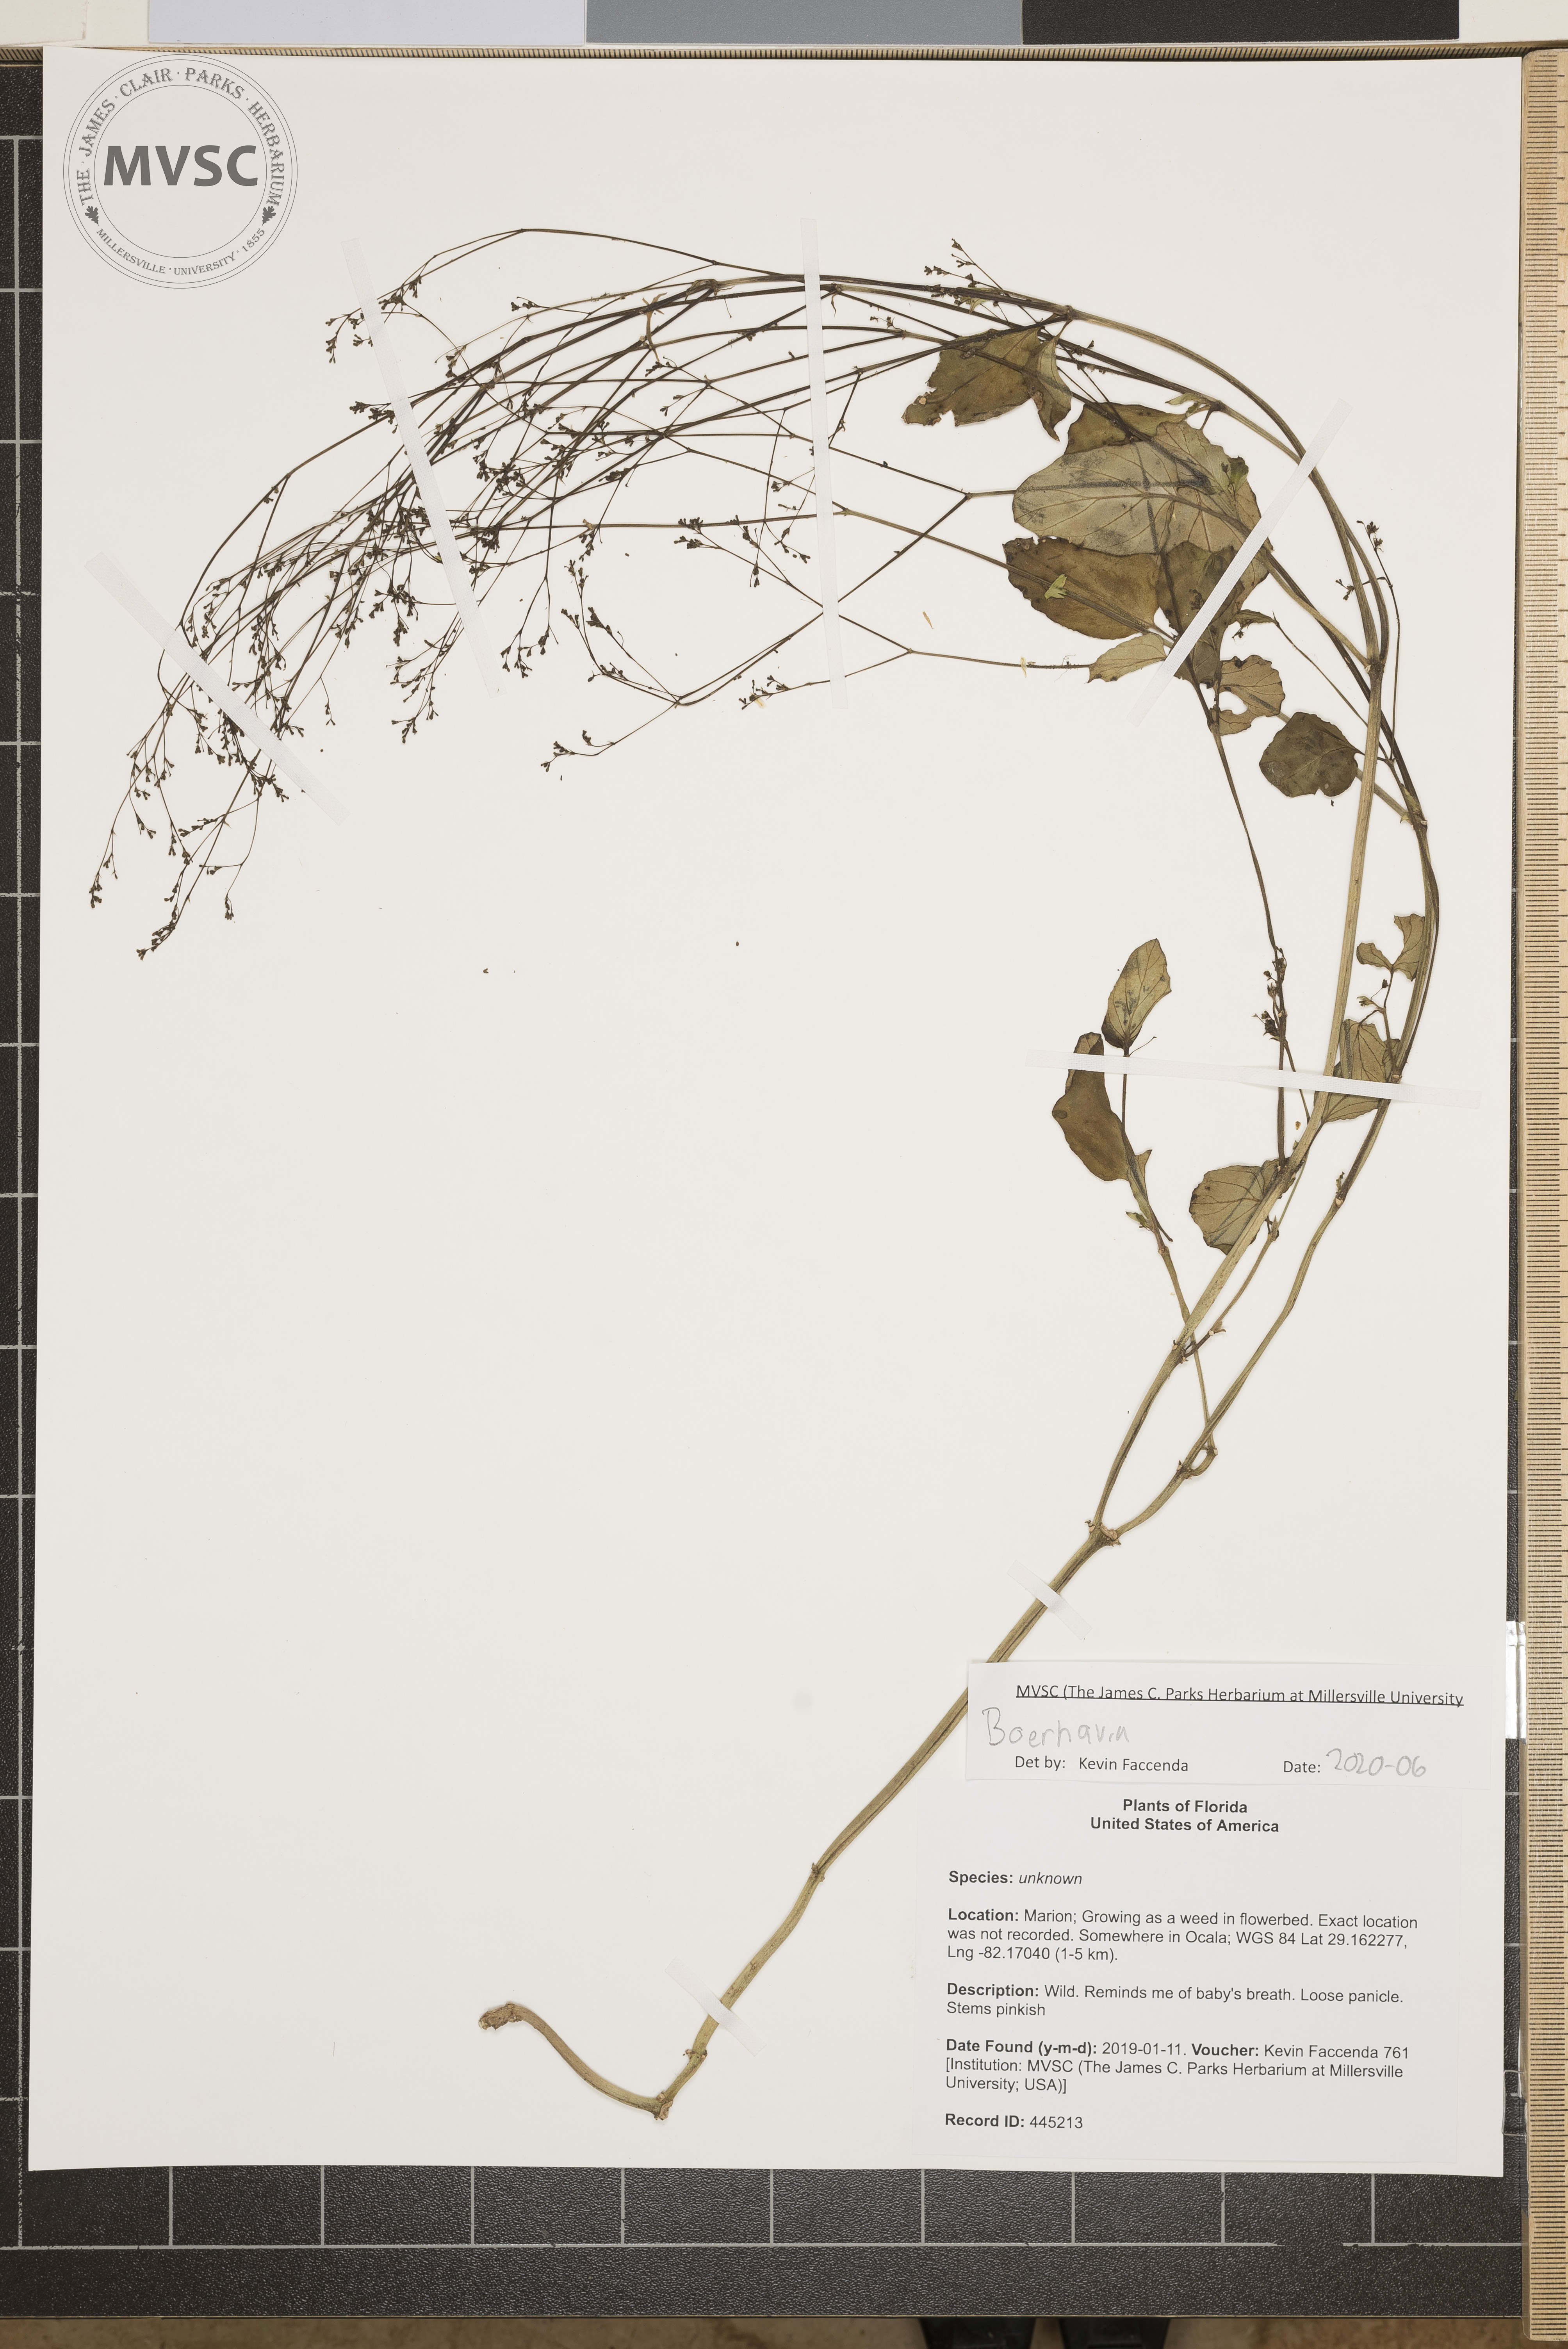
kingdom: Plantae
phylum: Tracheophyta
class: Magnoliopsida
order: Caryophyllales
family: Nyctaginaceae
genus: Boerhavia
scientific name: Boerhavia
